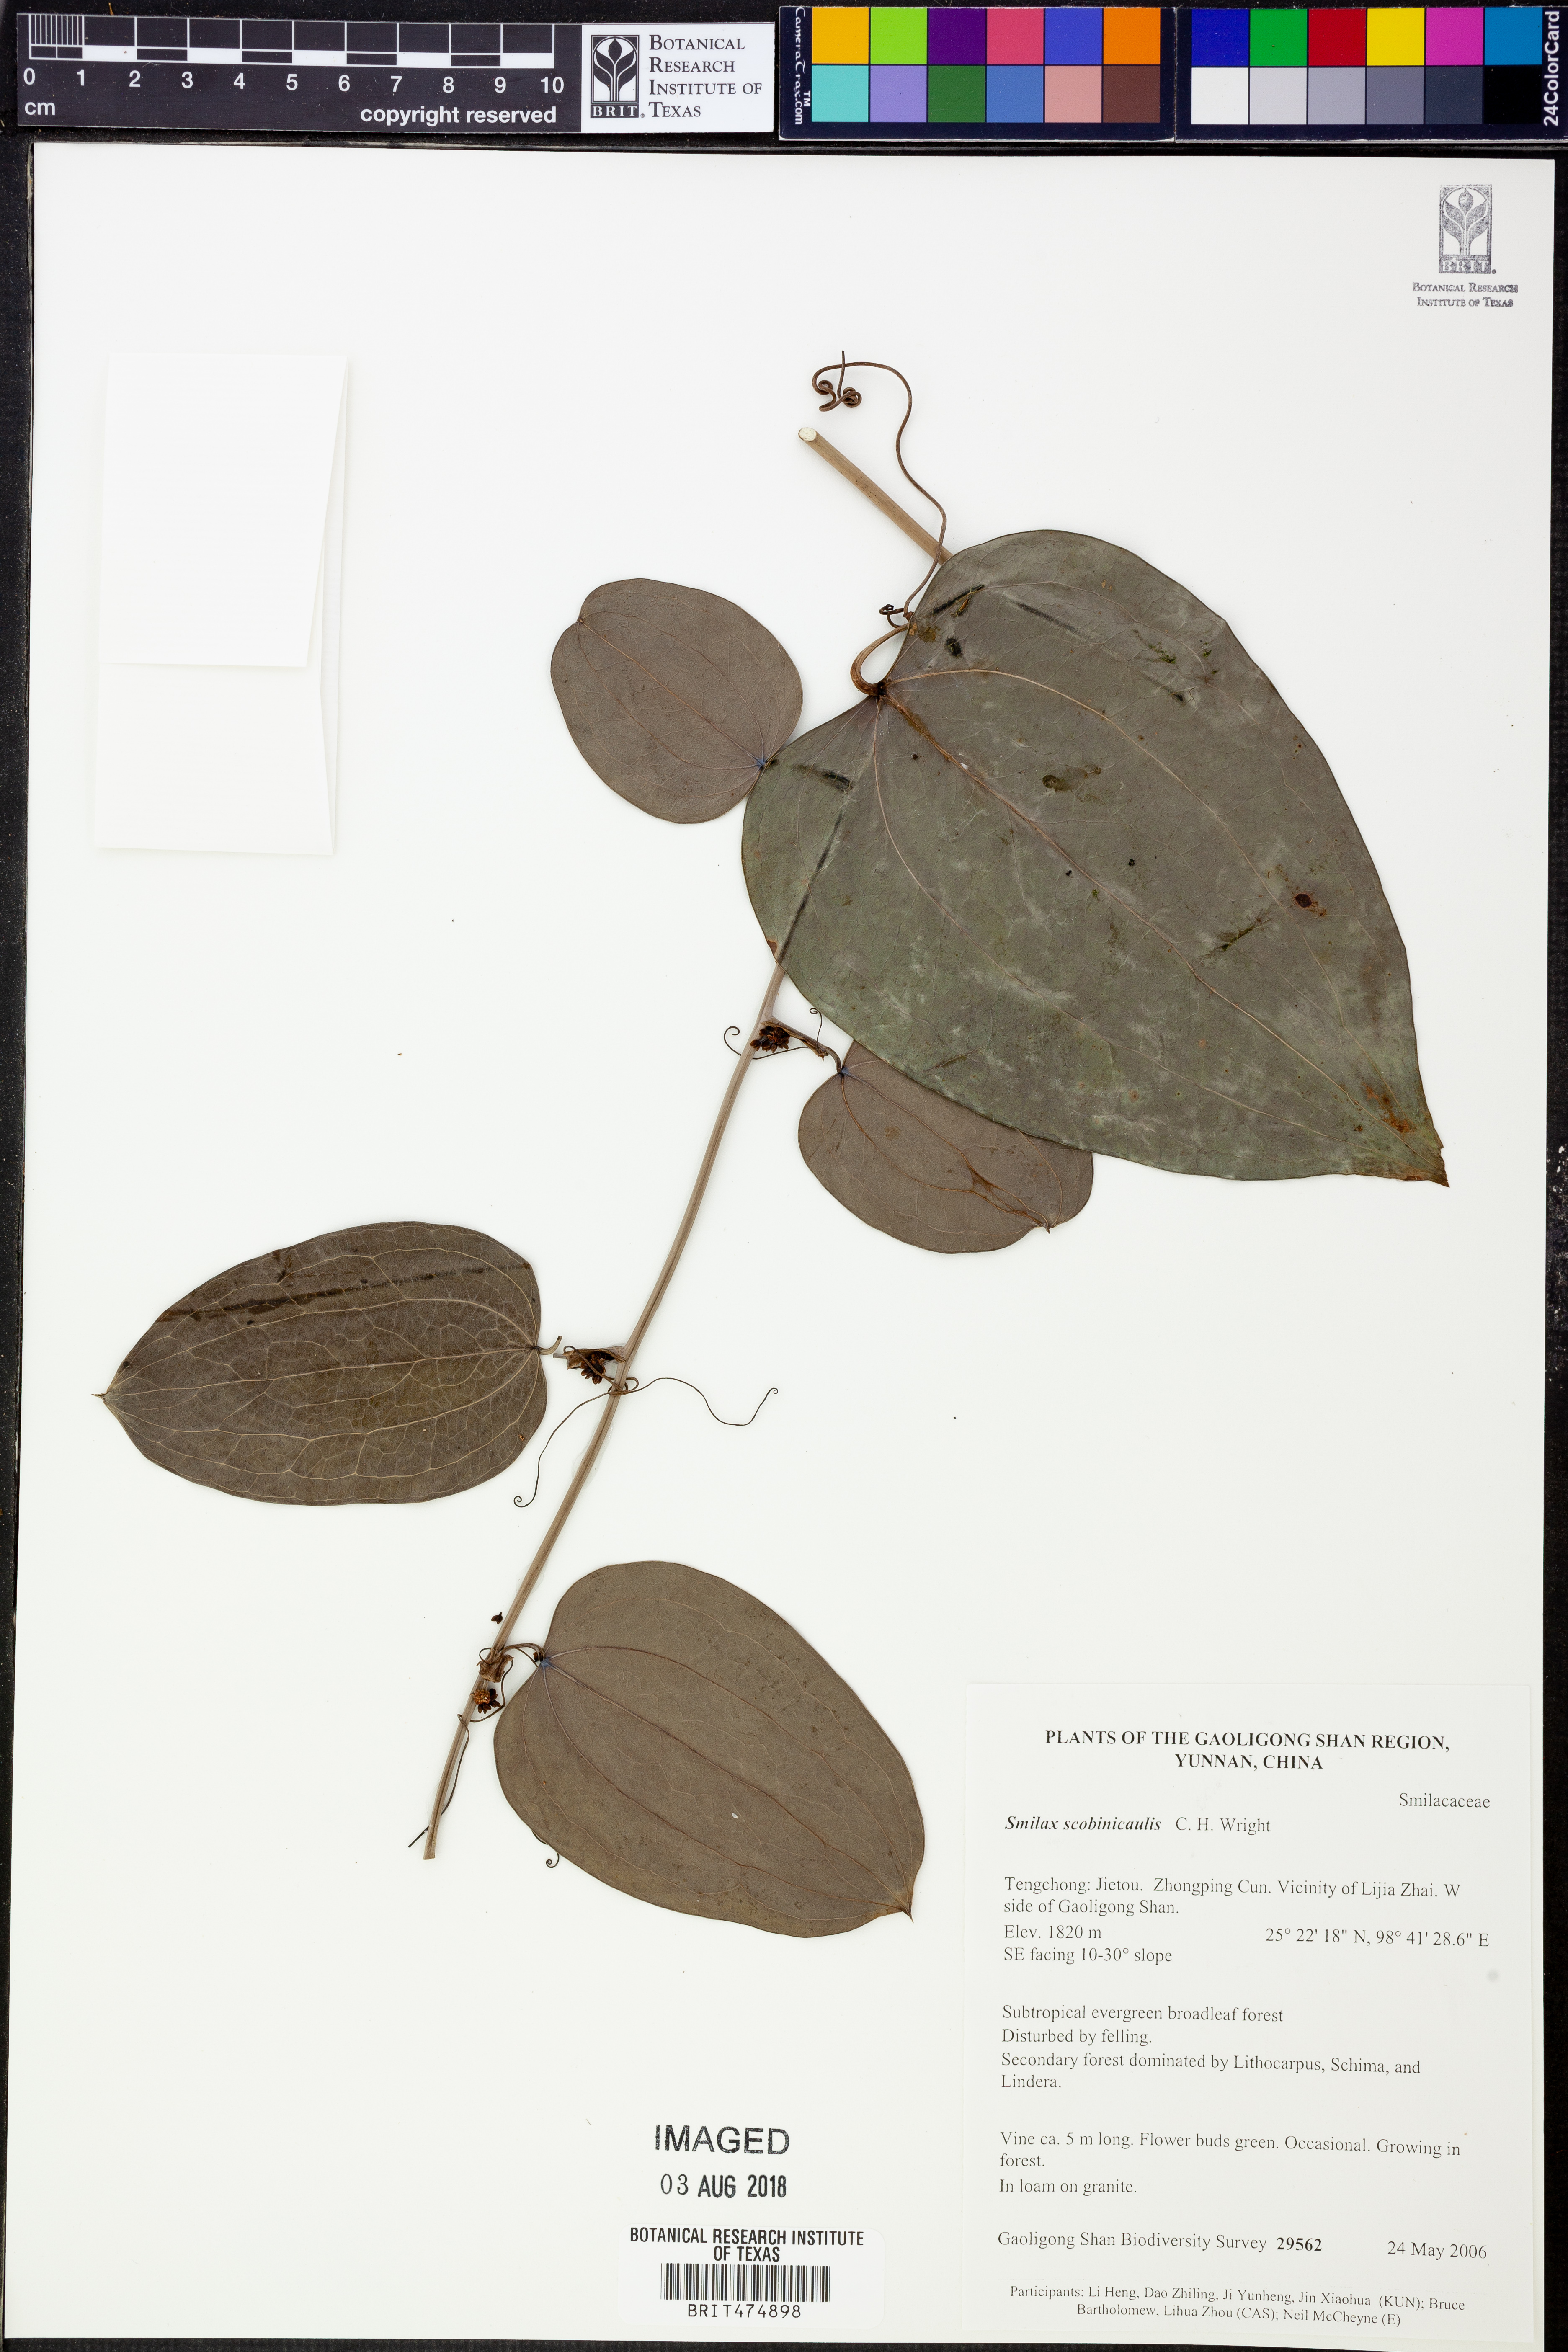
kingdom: Plantae
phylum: Tracheophyta
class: Liliopsida
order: Liliales
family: Smilacaceae
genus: Smilax
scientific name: Smilax scobinicaulis
